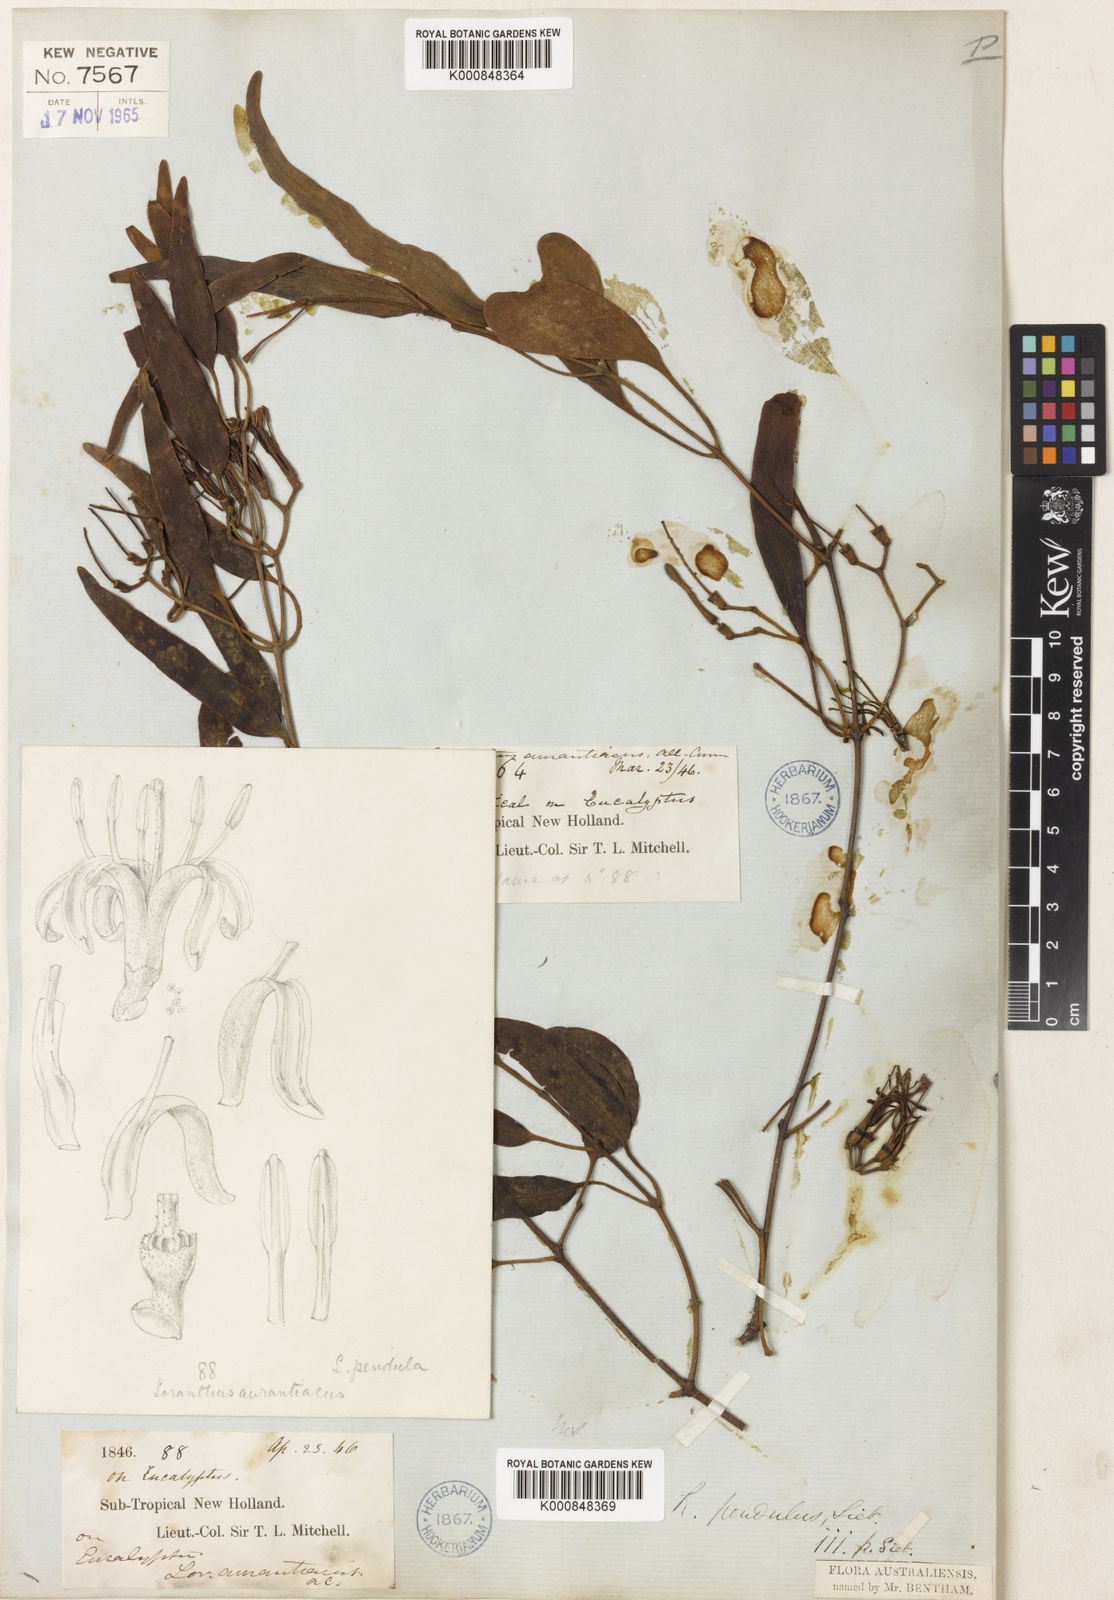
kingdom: Plantae
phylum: Tracheophyta
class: Magnoliopsida
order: Santalales
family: Loranthaceae
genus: Amyema
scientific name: Amyema miquelii
